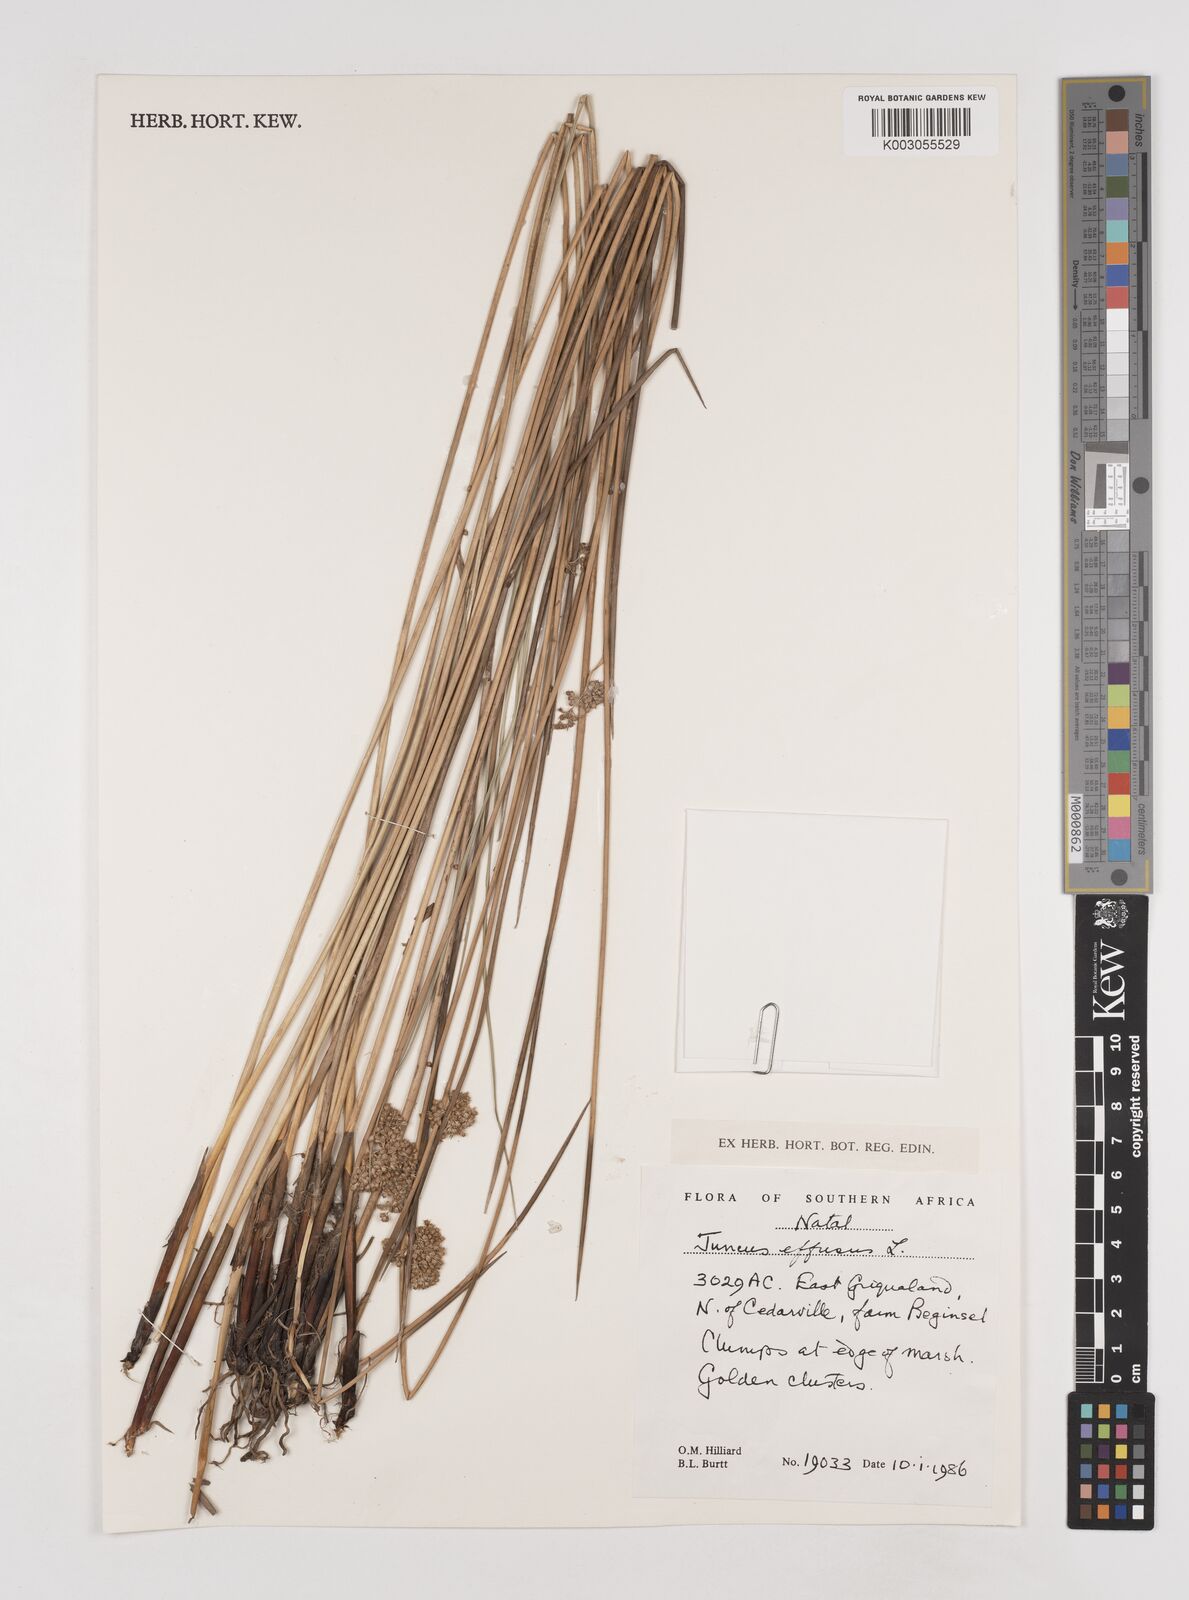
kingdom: Plantae
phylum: Tracheophyta
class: Liliopsida
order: Poales
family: Juncaceae
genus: Juncus
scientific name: Juncus effusus
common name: Soft rush
